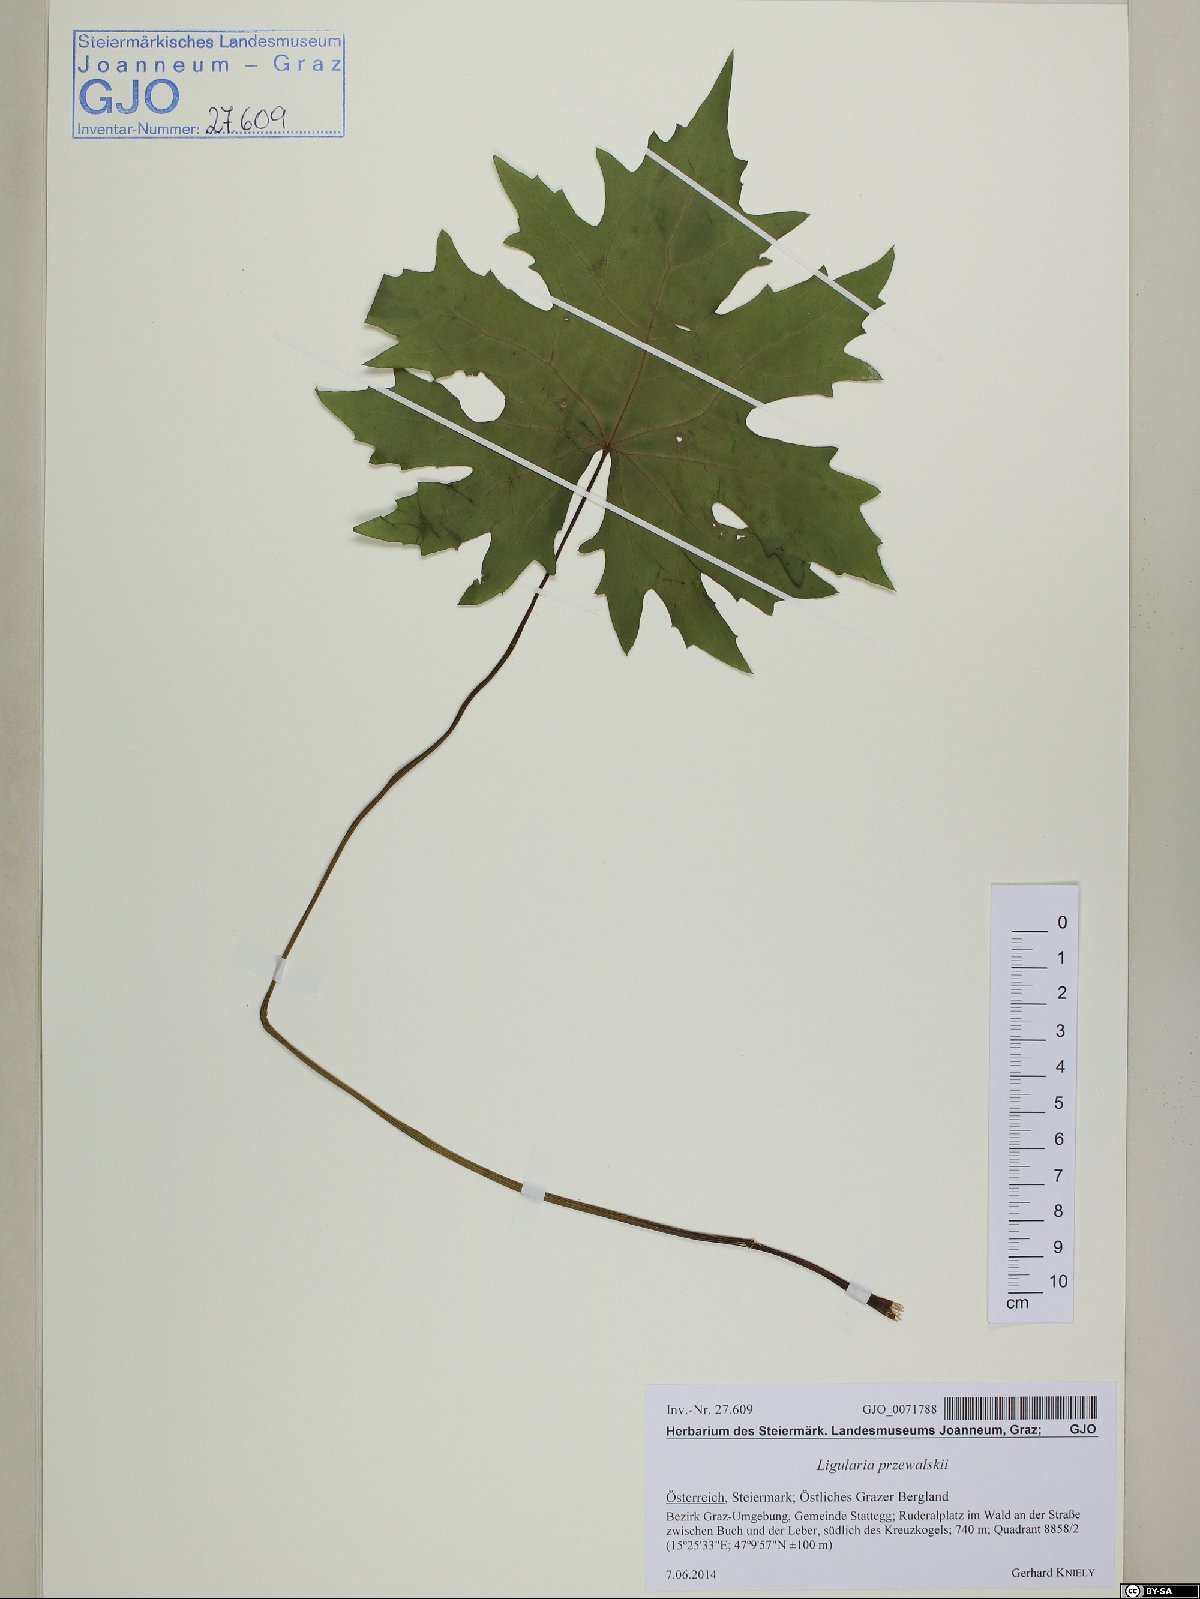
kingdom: Plantae
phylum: Tracheophyta
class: Magnoliopsida
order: Asterales
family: Asteraceae
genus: Ligularia
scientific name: Ligularia przewalskii
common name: Przewalski's leopardplant
